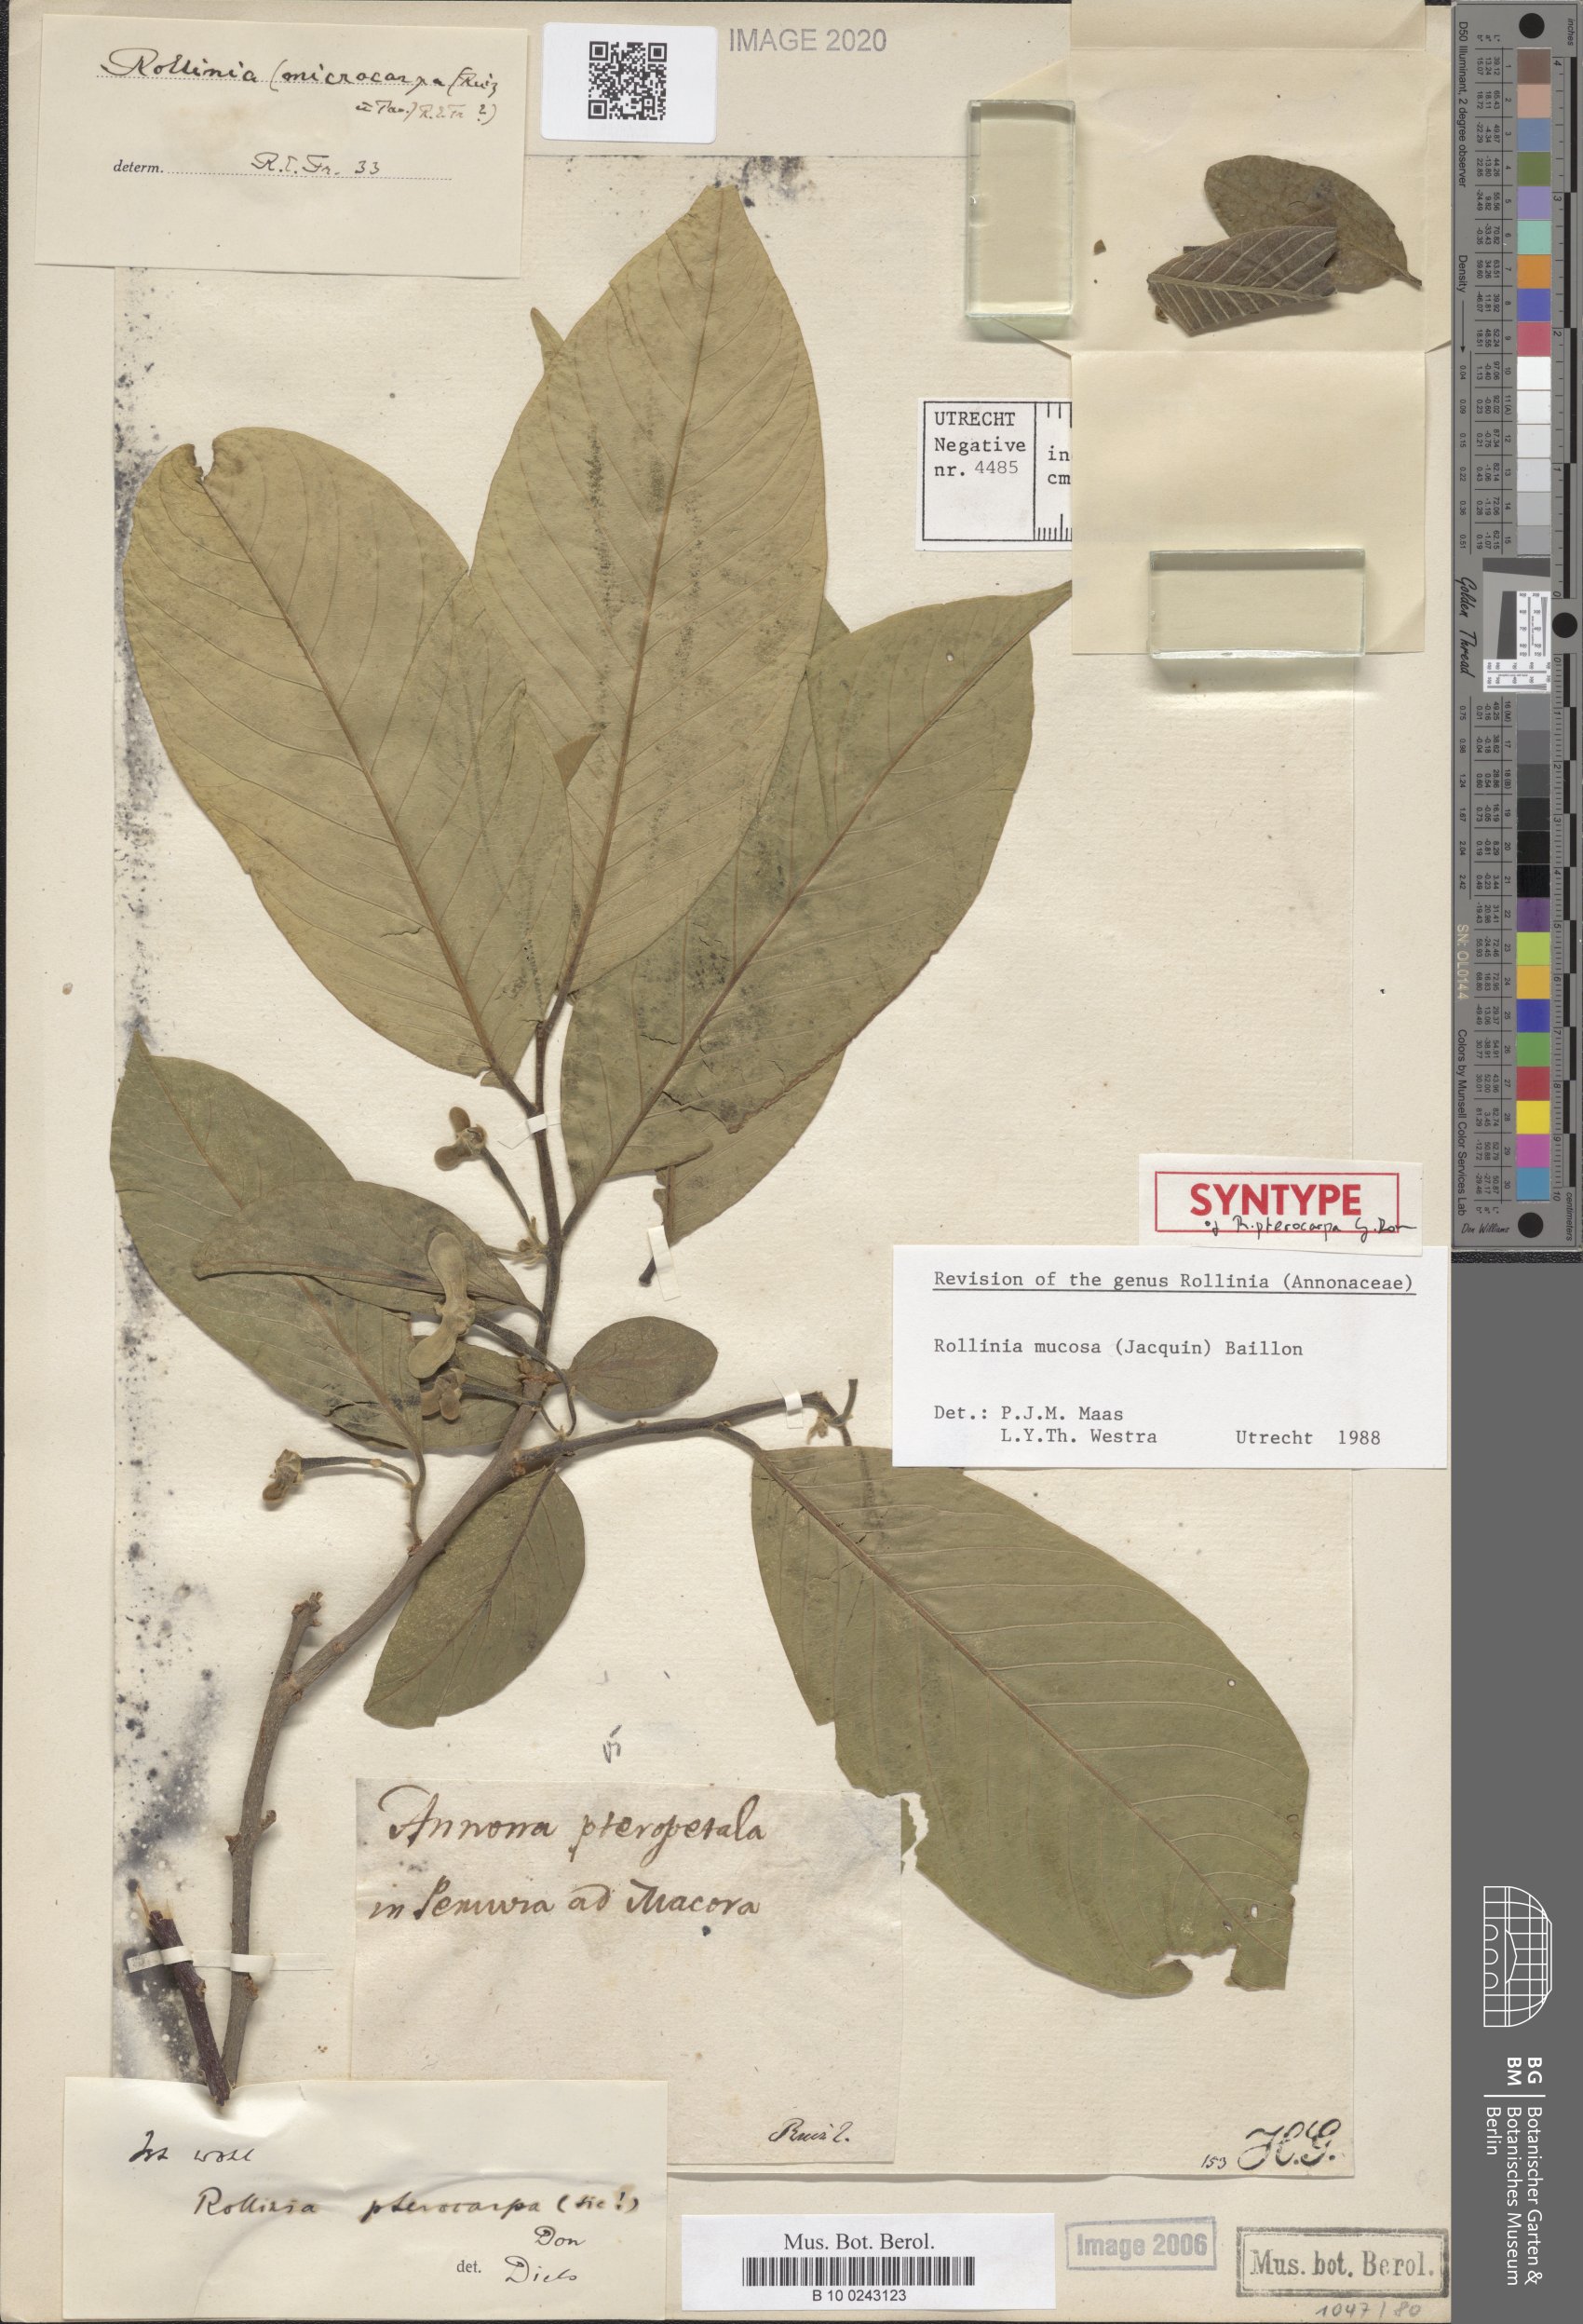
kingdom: Plantae
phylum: Tracheophyta
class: Magnoliopsida
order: Magnoliales
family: Annonaceae
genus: Annona
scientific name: Annona mucosa
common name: Sugar apple
